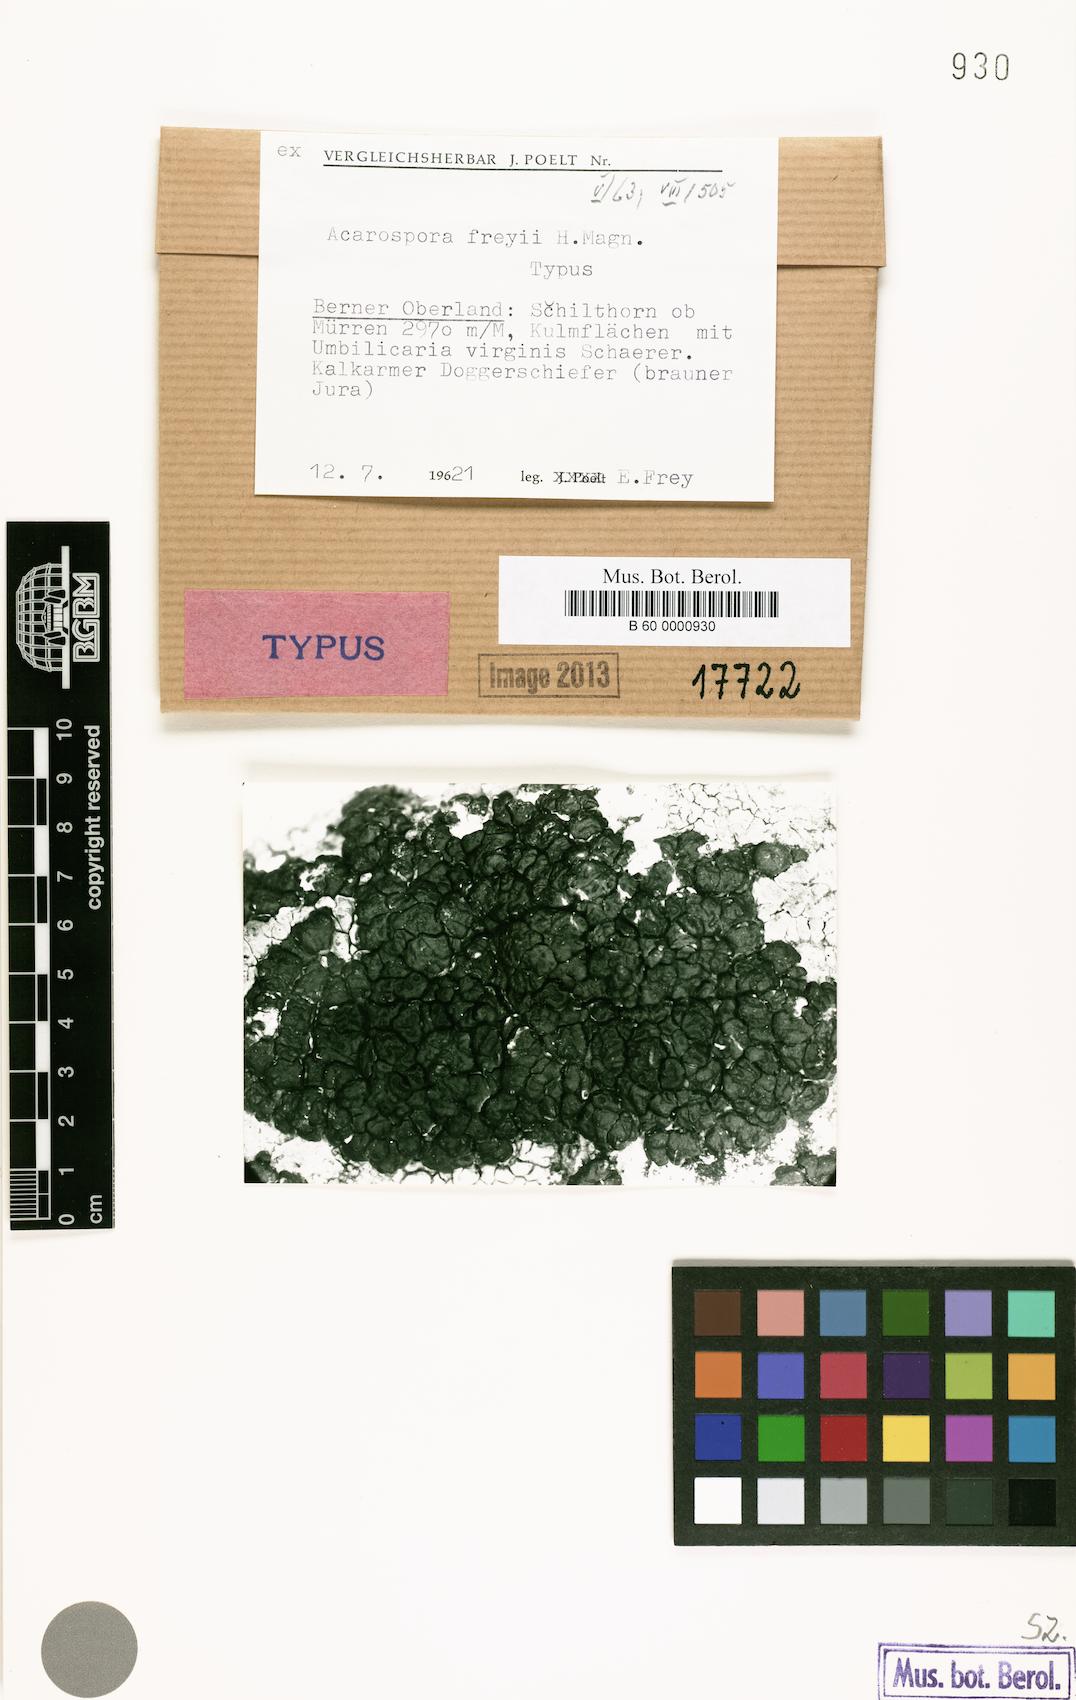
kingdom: Fungi
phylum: Ascomycota
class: Lecanoromycetes
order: Acarosporales
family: Acarosporaceae
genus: Acarospora
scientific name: Acarospora freyii
